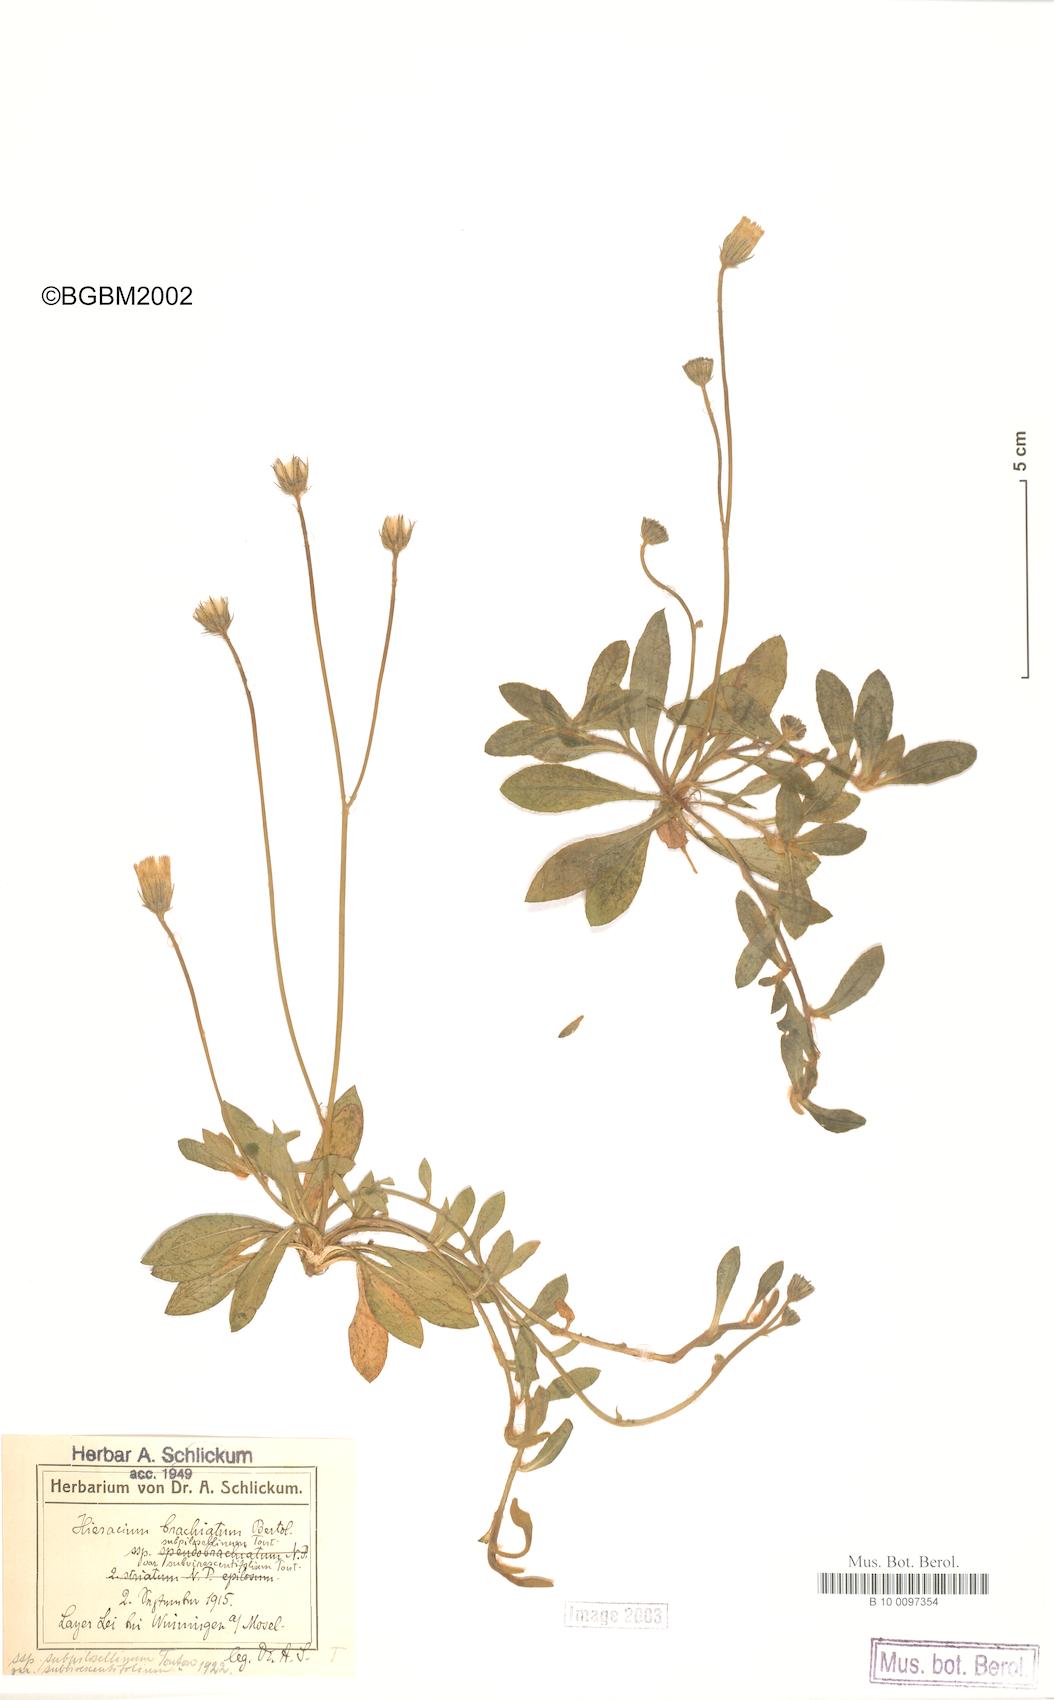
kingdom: Plantae
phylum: Tracheophyta
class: Magnoliopsida
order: Asterales
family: Asteraceae
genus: Pilosella
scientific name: Pilosella acutifolia
